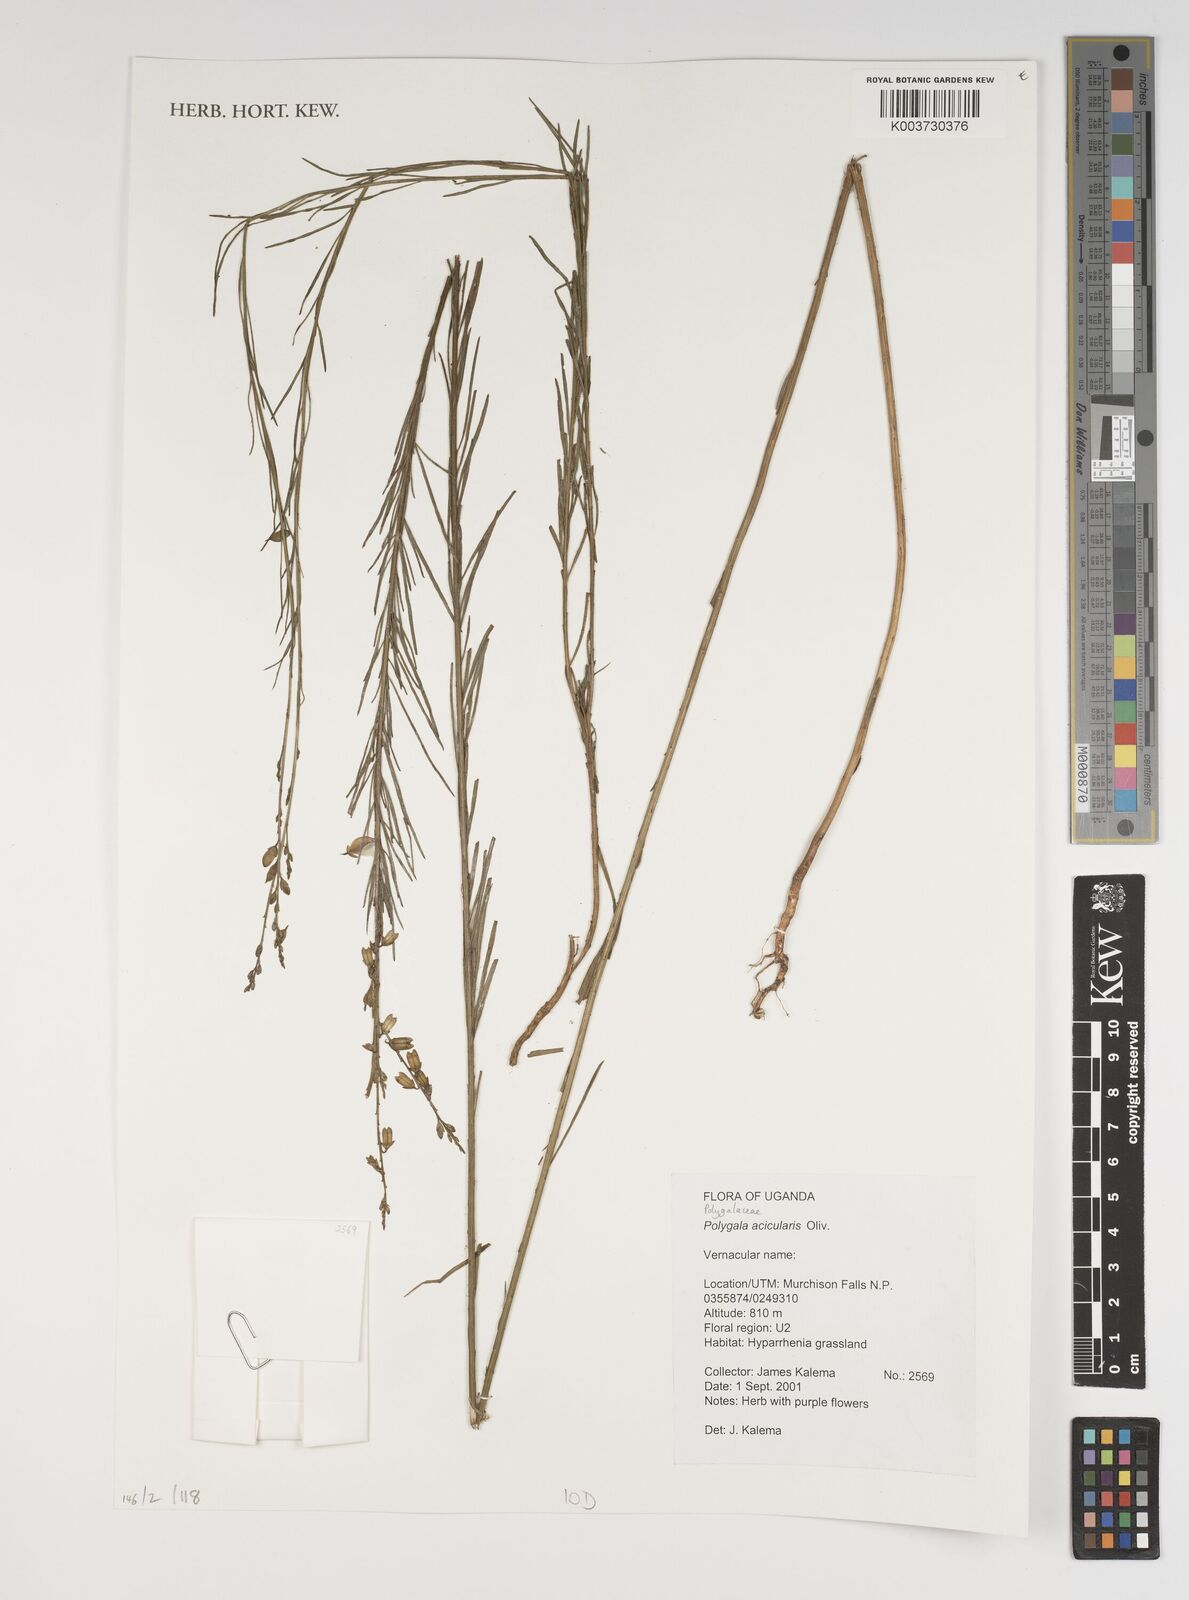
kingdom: Plantae
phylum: Tracheophyta
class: Magnoliopsida
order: Fabales
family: Polygalaceae
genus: Polygala
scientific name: Polygala acicularis
